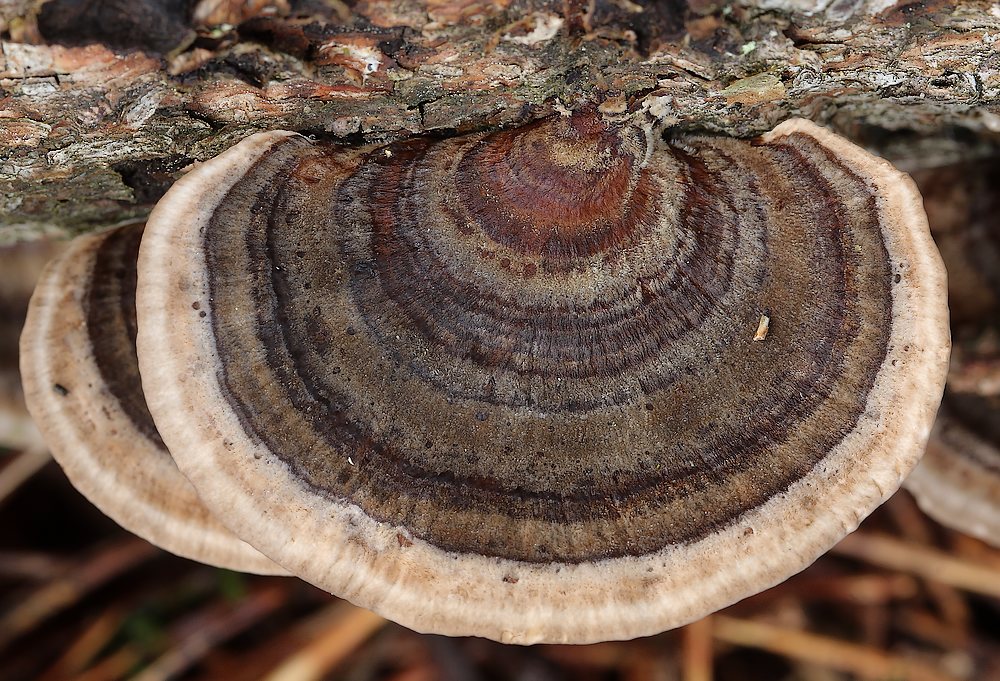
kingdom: Fungi
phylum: Basidiomycota
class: Agaricomycetes
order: Polyporales
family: Polyporaceae
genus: Trametes
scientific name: Trametes versicolor
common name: broget læderporesvamp
